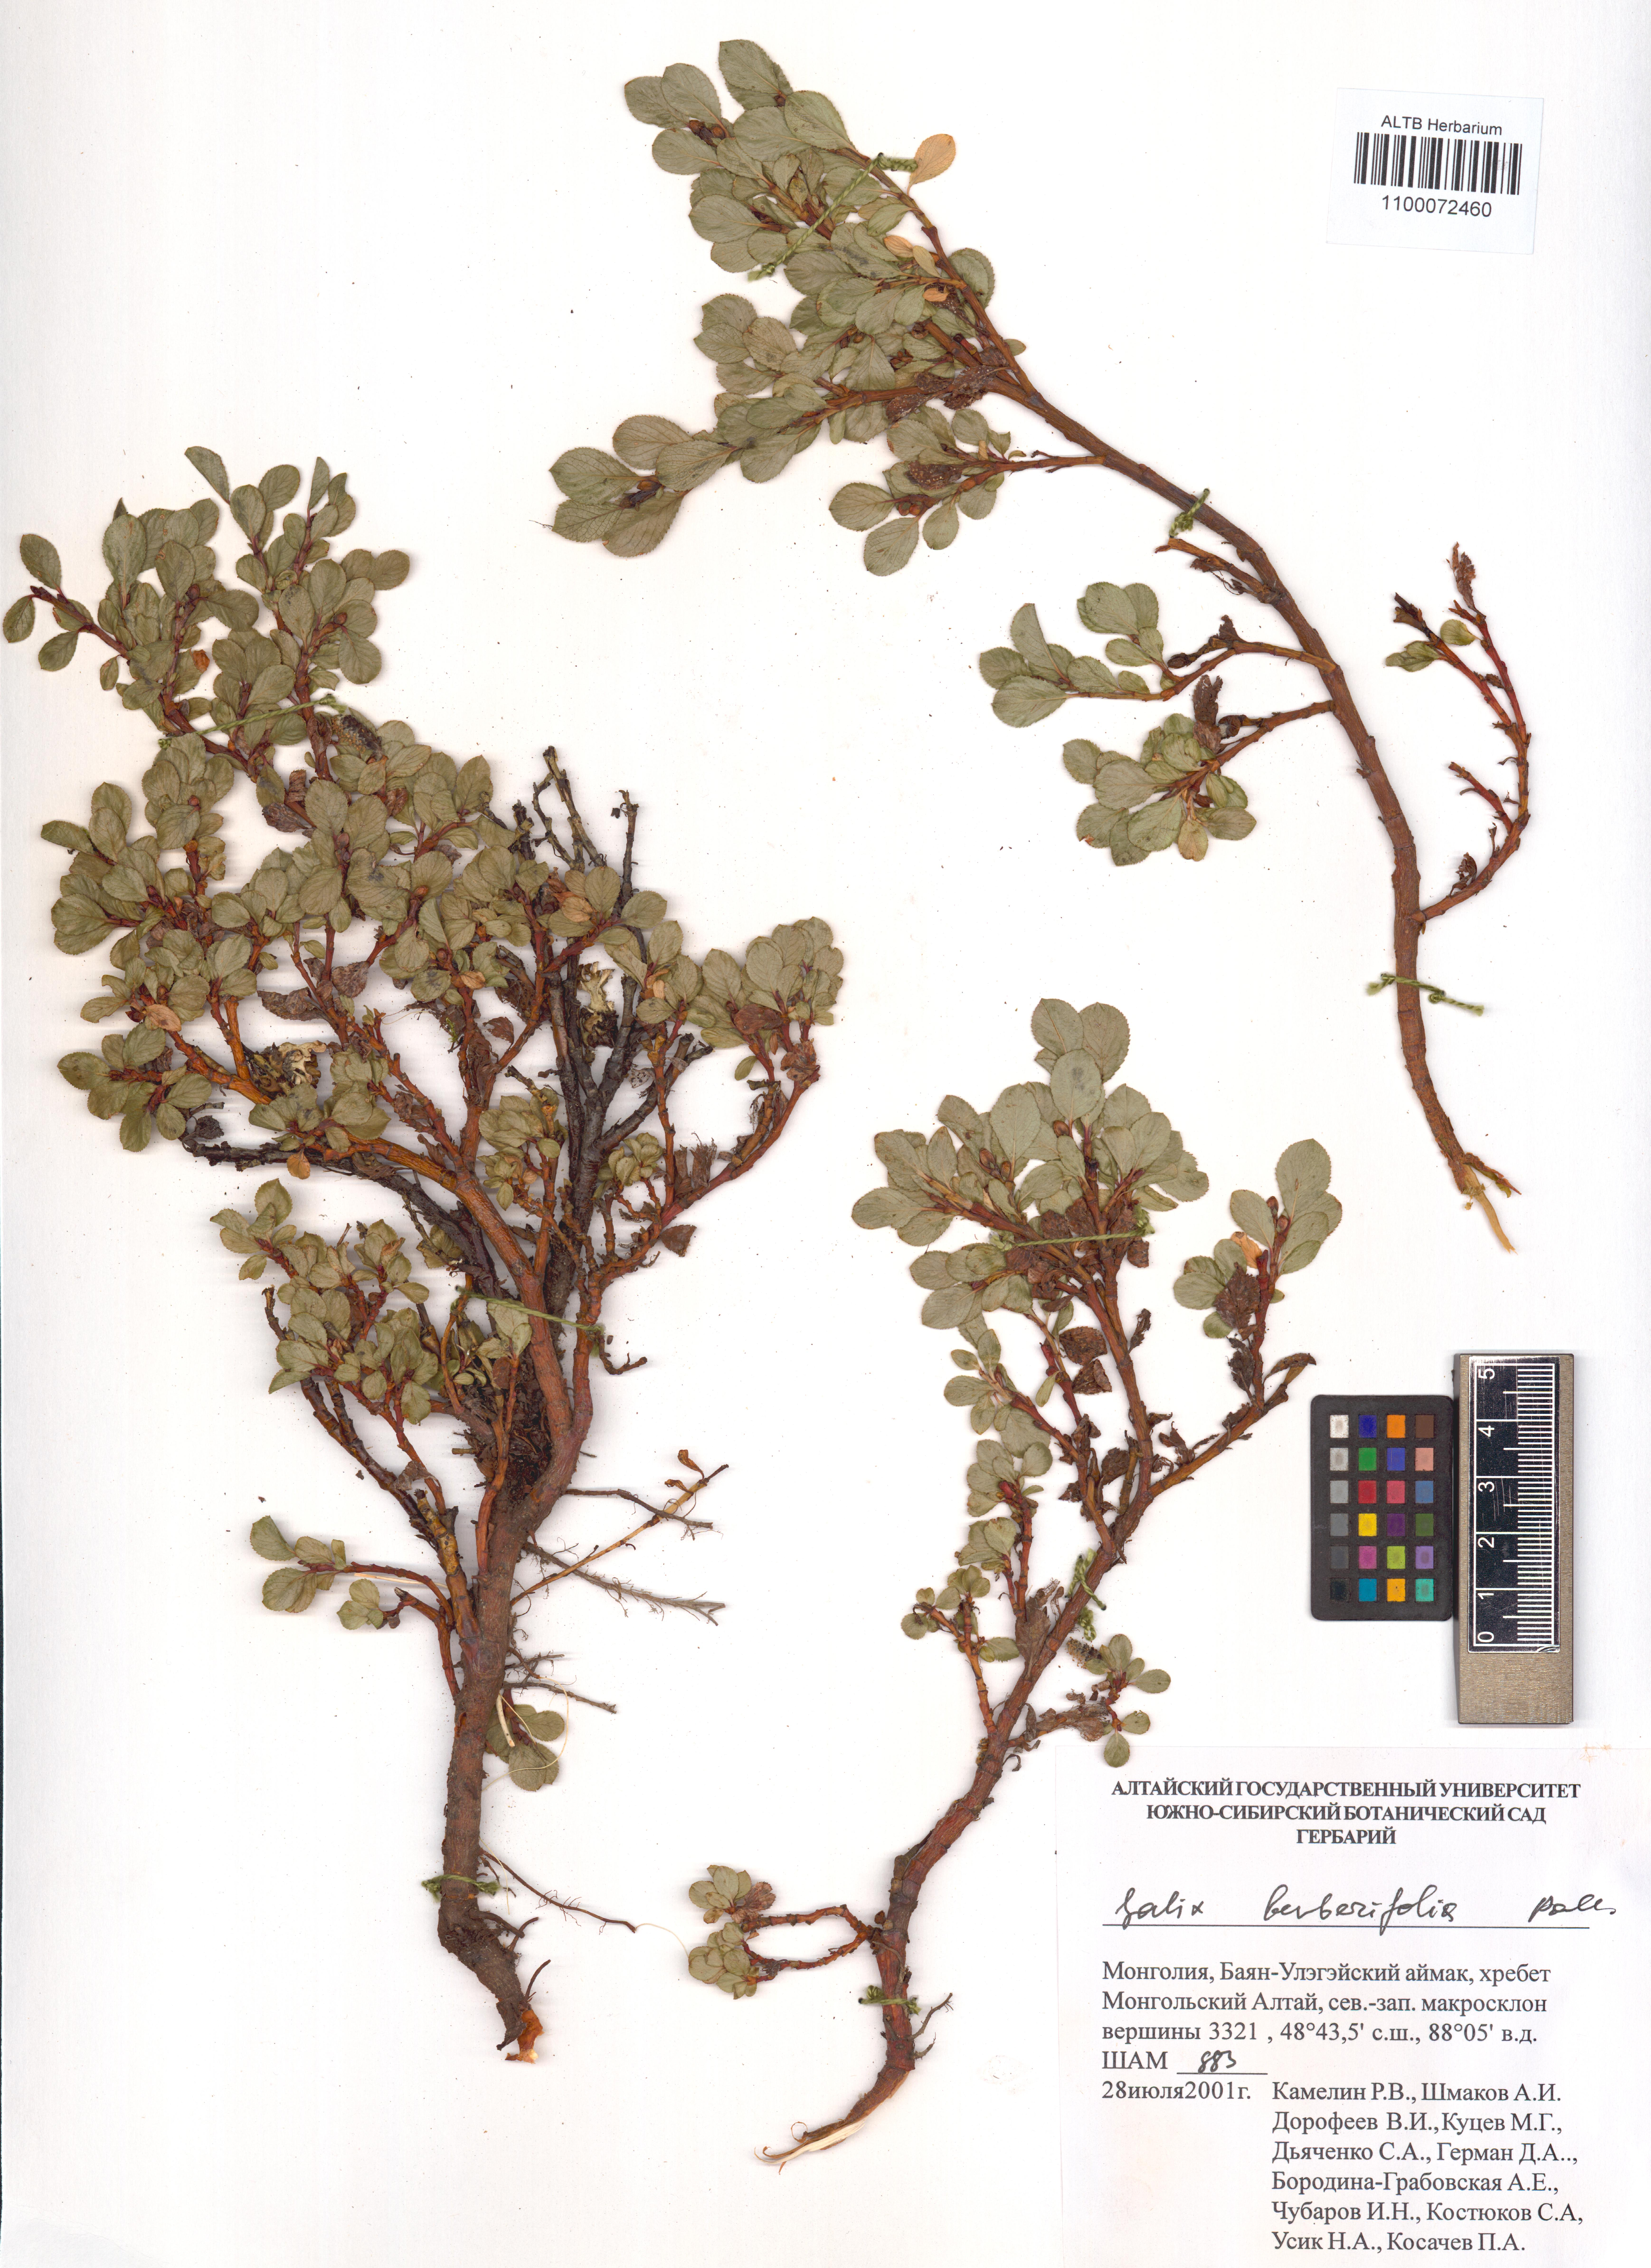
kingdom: Plantae
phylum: Tracheophyta
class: Magnoliopsida
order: Malpighiales
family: Salicaceae
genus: Salix
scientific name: Salix berberifolia
